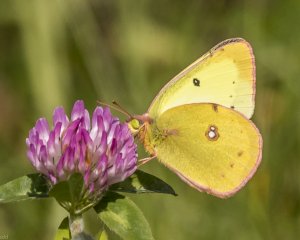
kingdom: Animalia
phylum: Arthropoda
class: Insecta
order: Lepidoptera
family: Pieridae
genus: Colias
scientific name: Colias philodice
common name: Clouded Sulphur
